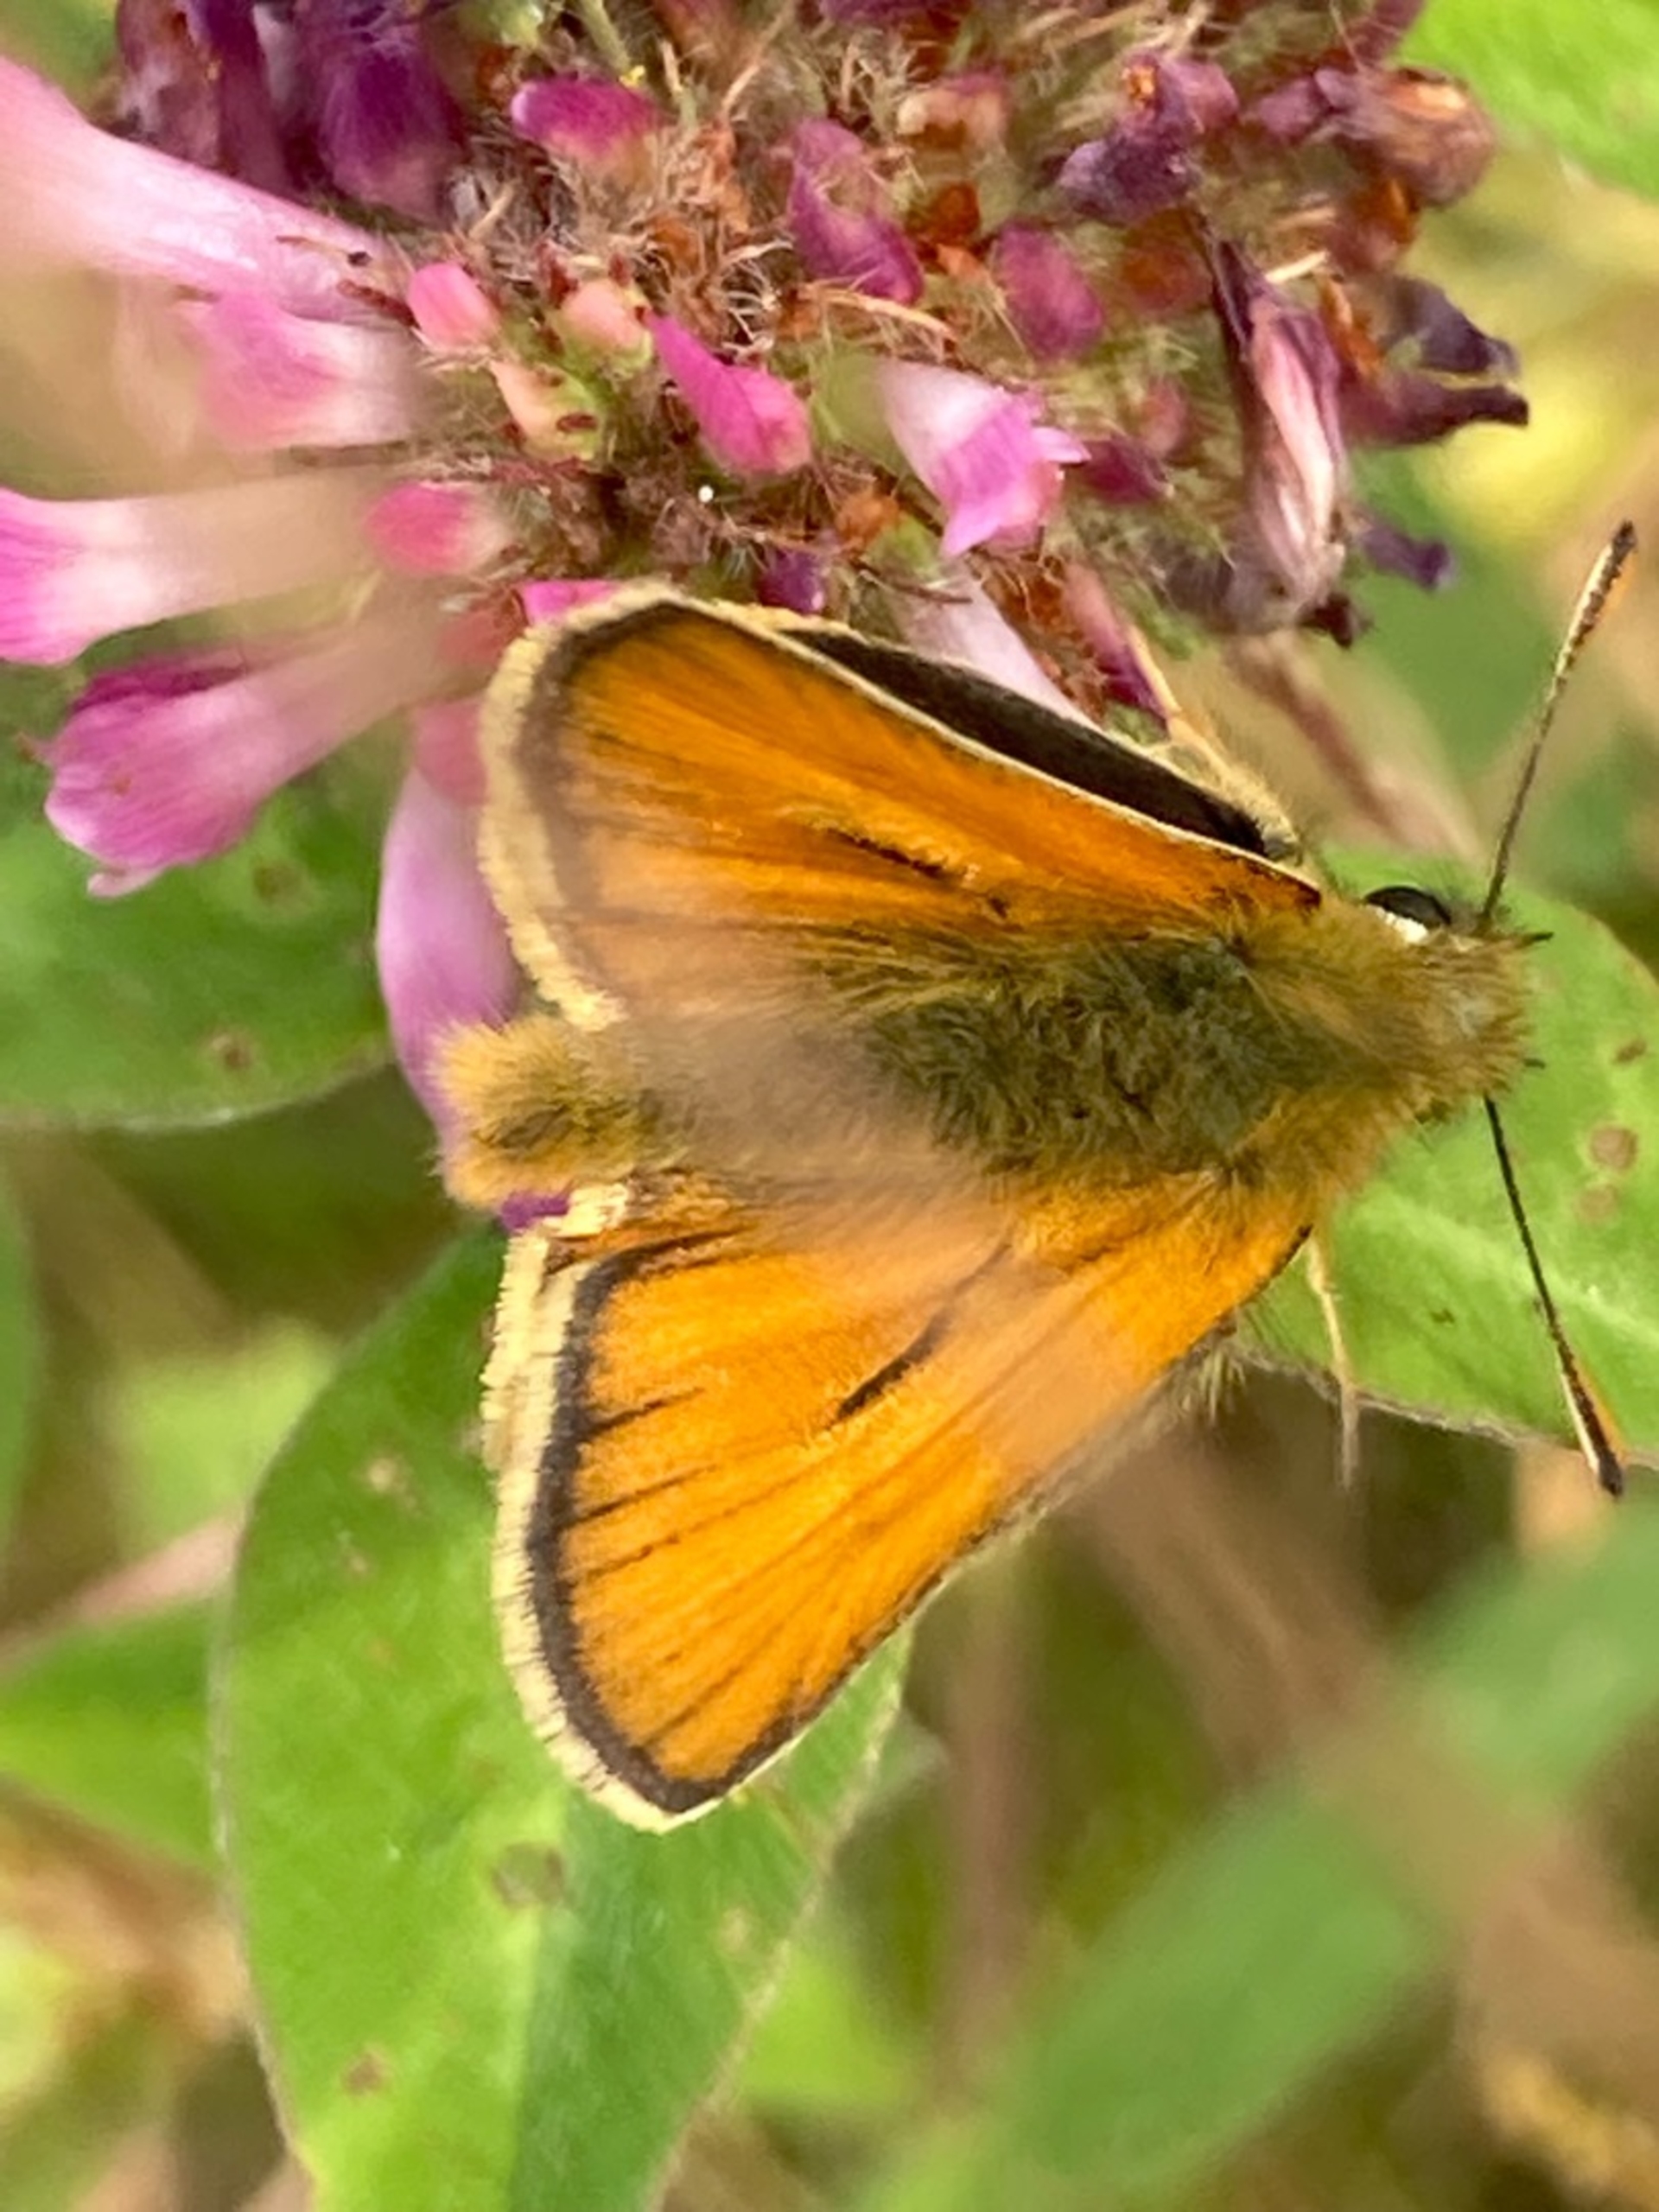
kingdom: Animalia
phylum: Arthropoda
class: Insecta
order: Lepidoptera
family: Hesperiidae
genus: Thymelicus
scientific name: Thymelicus sylvestris
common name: Skråstregbredpande
